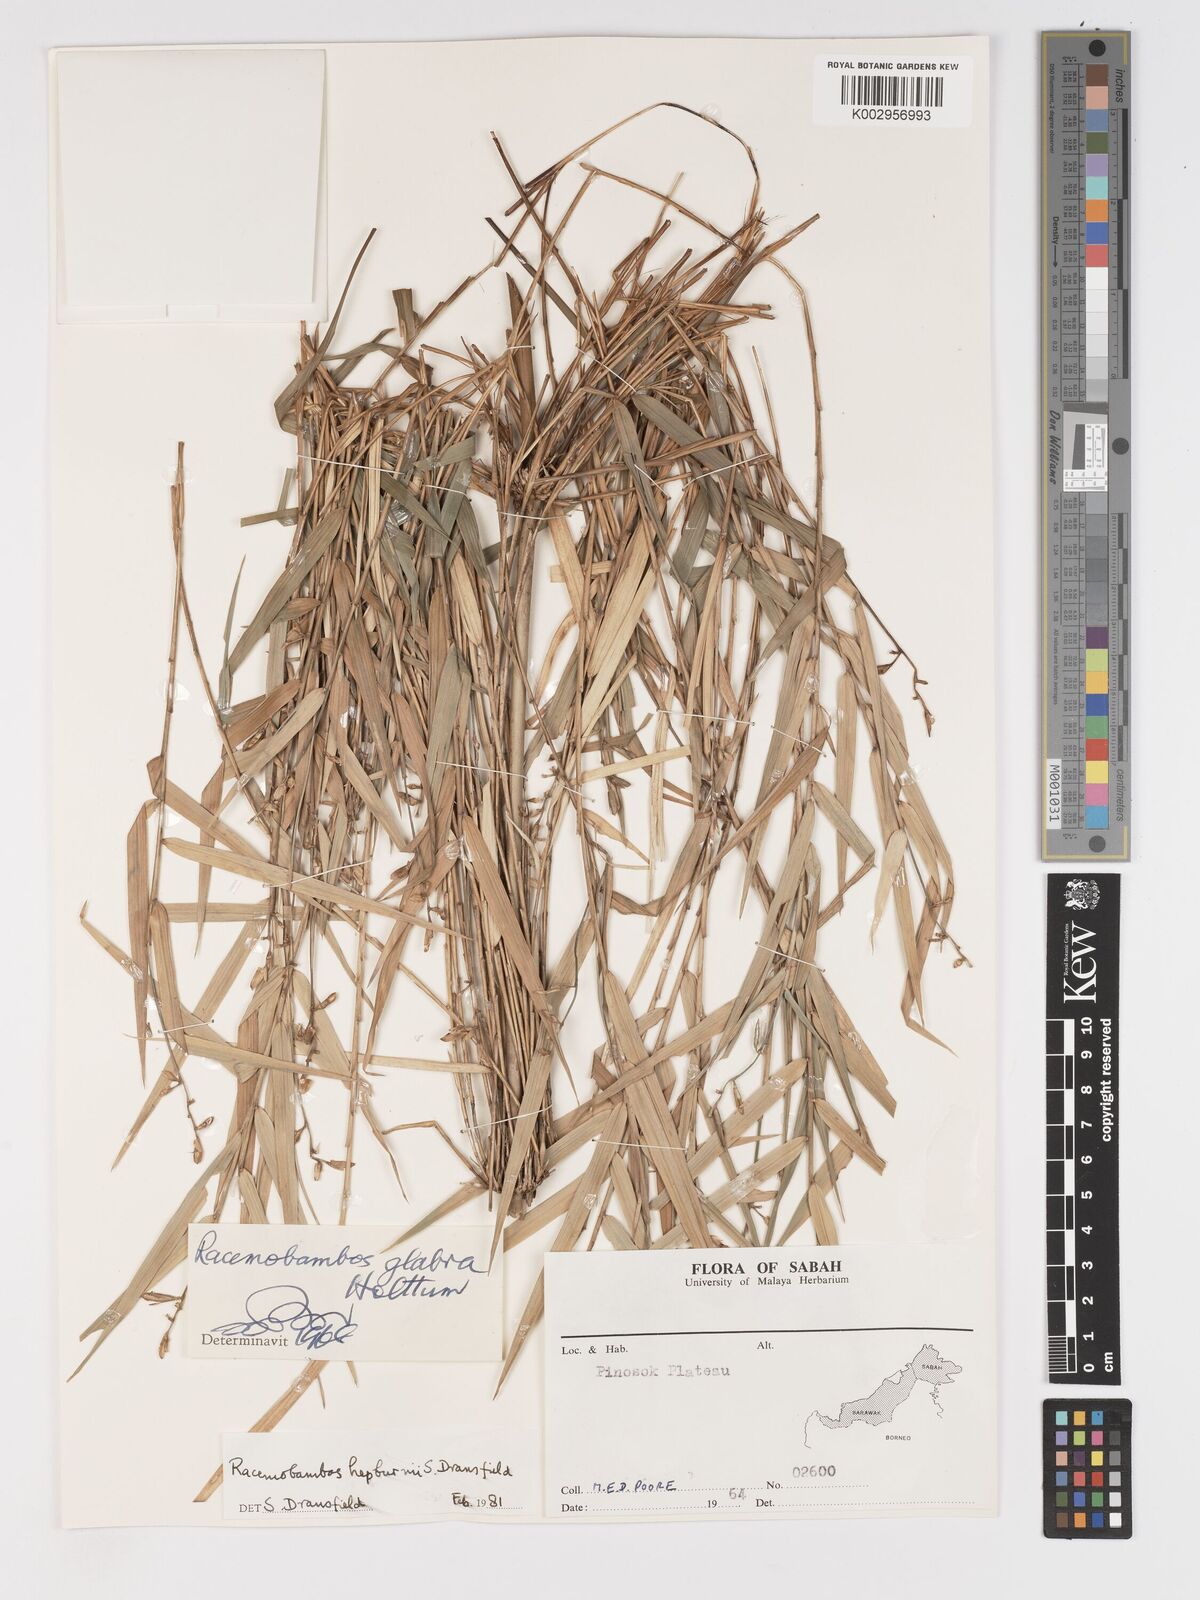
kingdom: Plantae
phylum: Tracheophyta
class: Liliopsida
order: Poales
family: Poaceae
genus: Racemobambos
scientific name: Racemobambos
